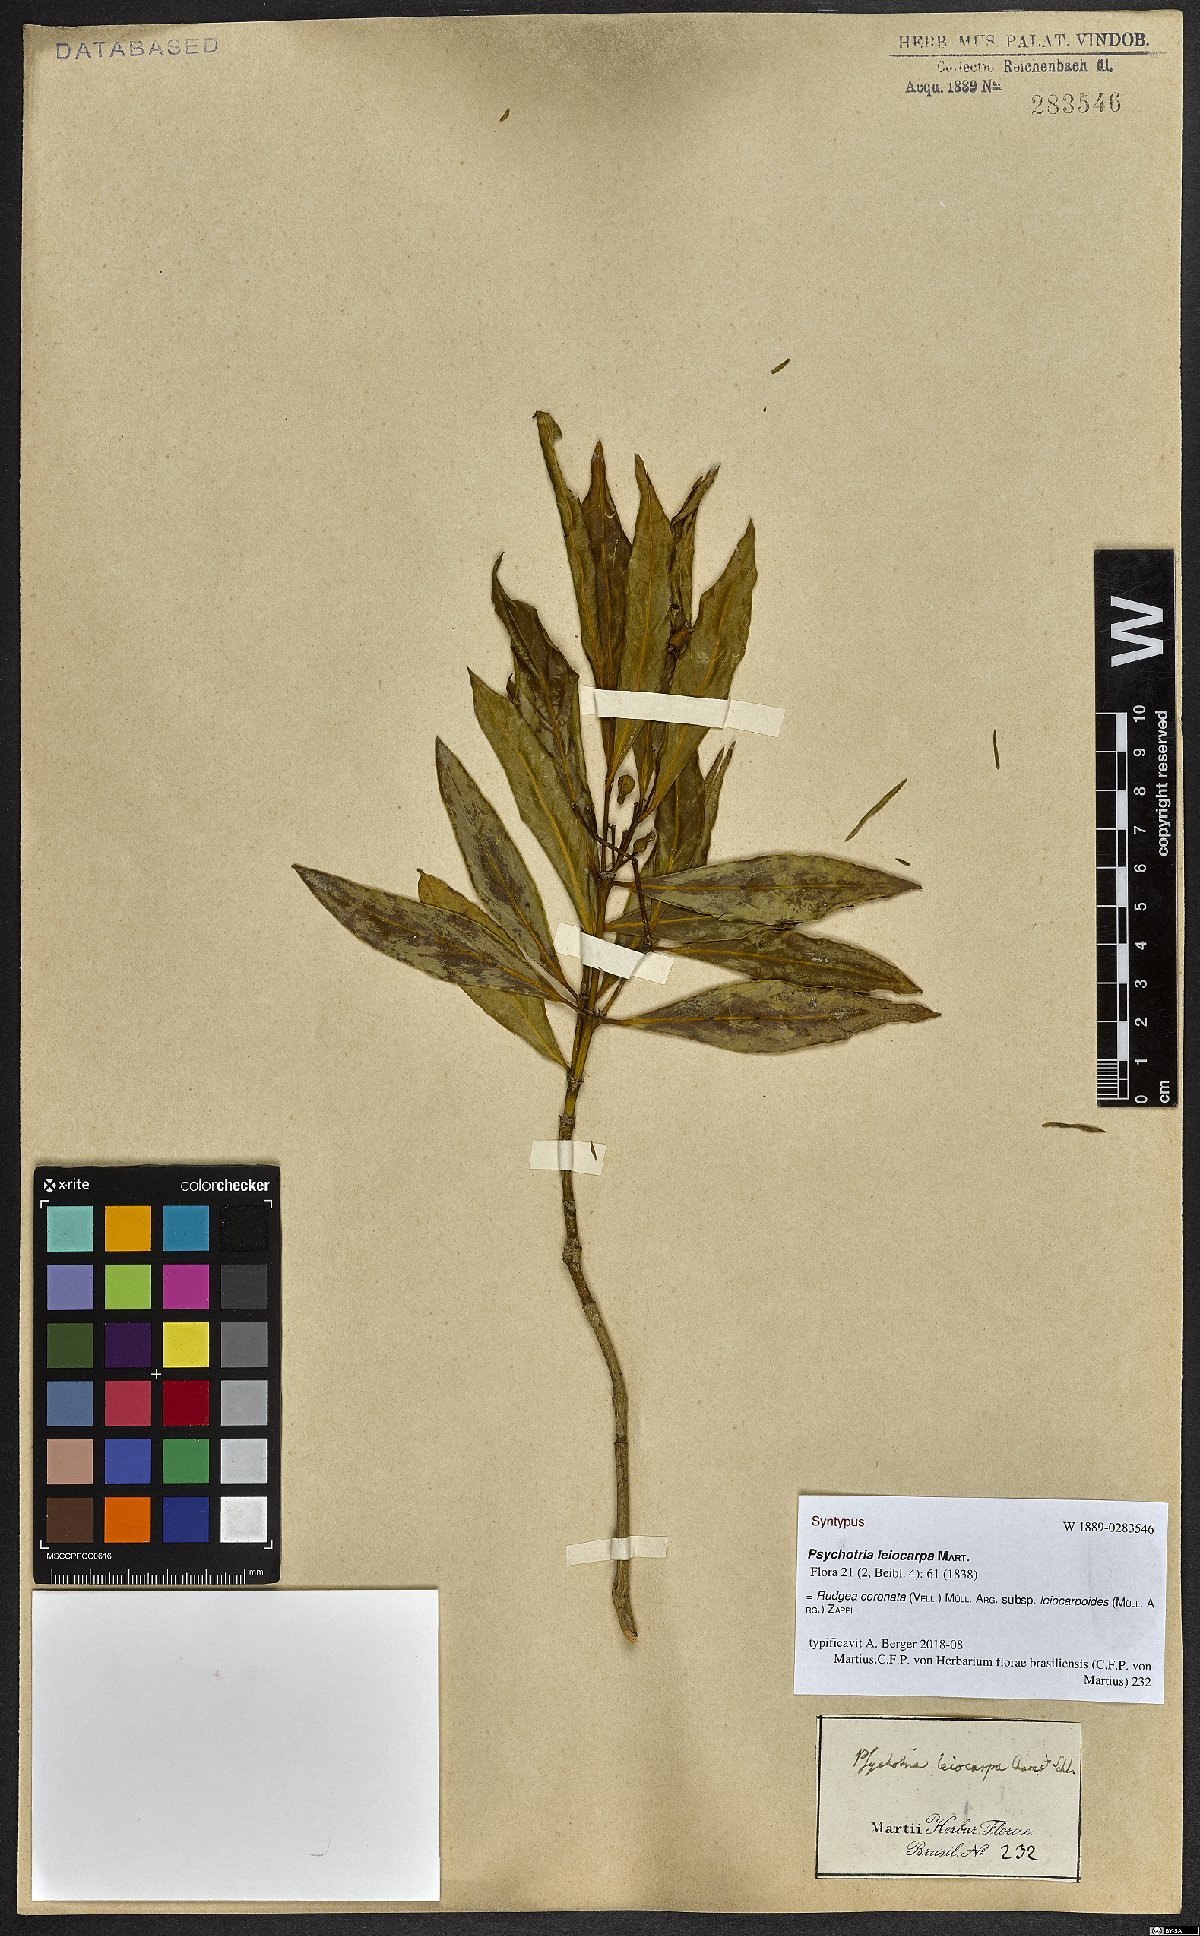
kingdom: Plantae
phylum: Tracheophyta
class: Magnoliopsida
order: Gentianales
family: Rubiaceae
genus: Rudgea
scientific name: Rudgea coronata
